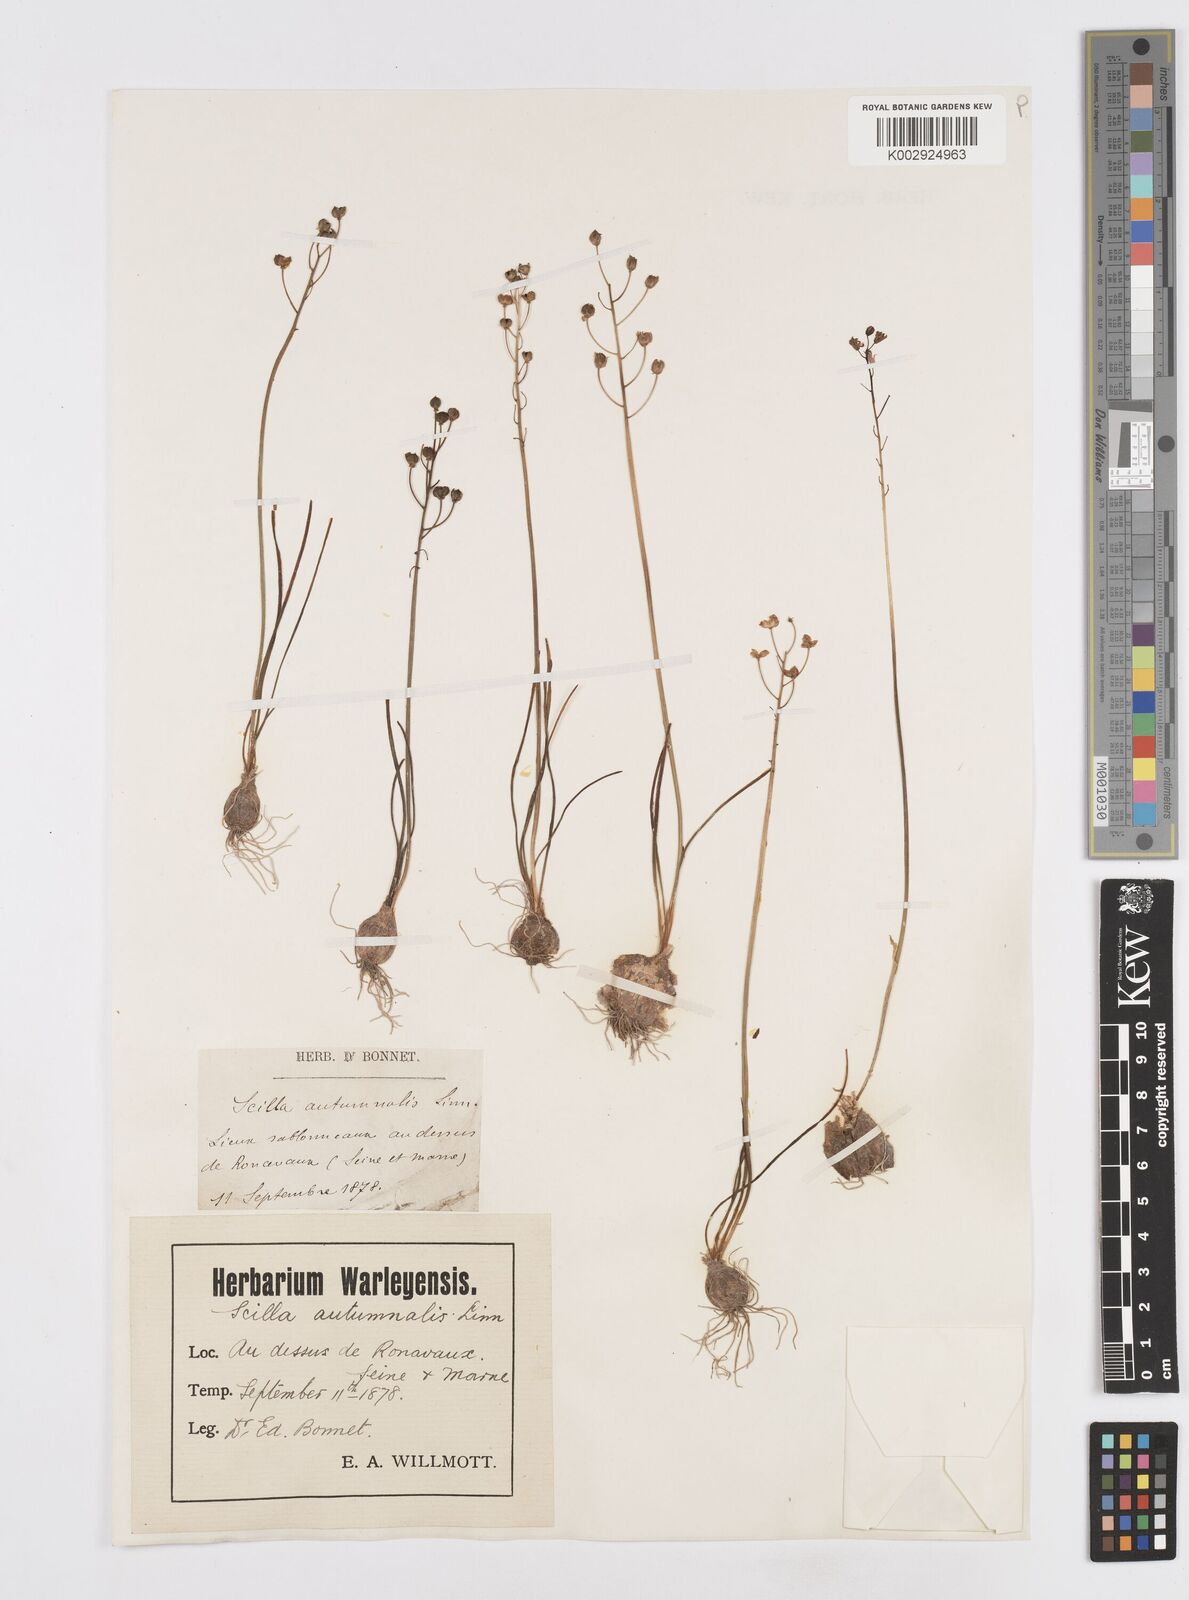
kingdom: Plantae
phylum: Tracheophyta
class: Liliopsida
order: Asparagales
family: Asparagaceae
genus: Prospero
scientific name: Prospero autumnale
